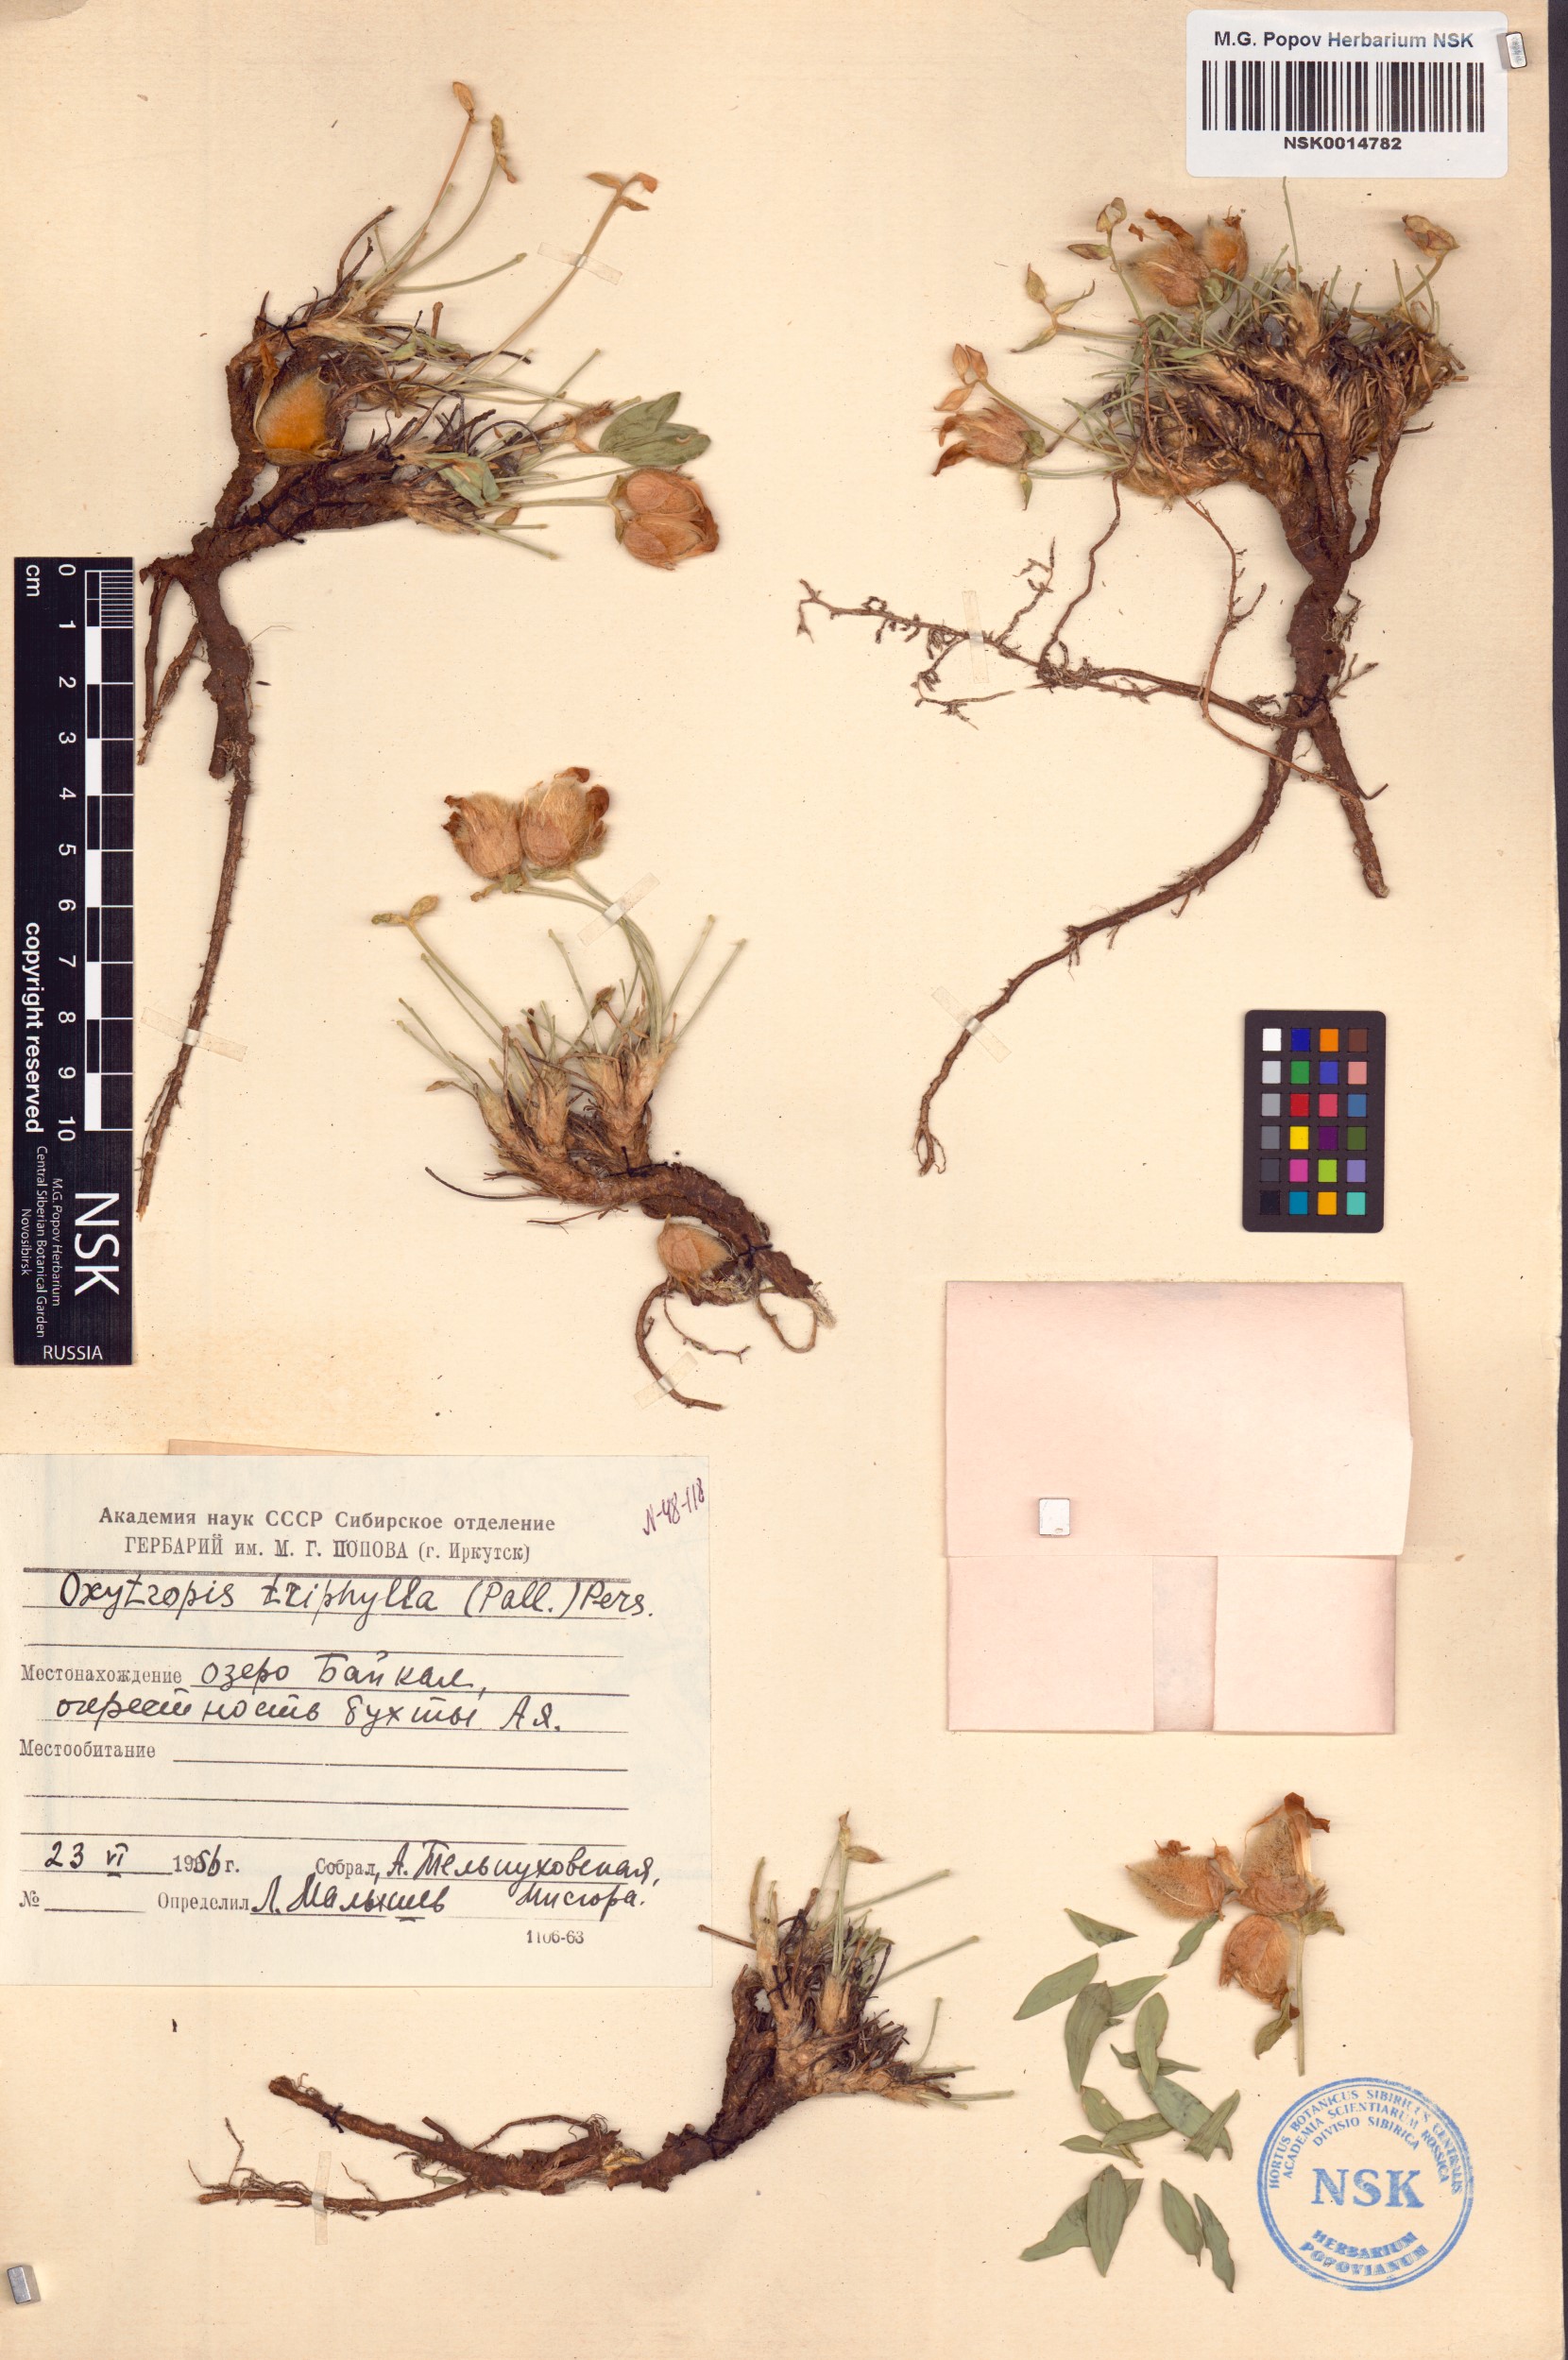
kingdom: Plantae
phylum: Tracheophyta
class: Magnoliopsida
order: Fabales
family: Fabaceae
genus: Oxytropis
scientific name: Oxytropis triphylla
